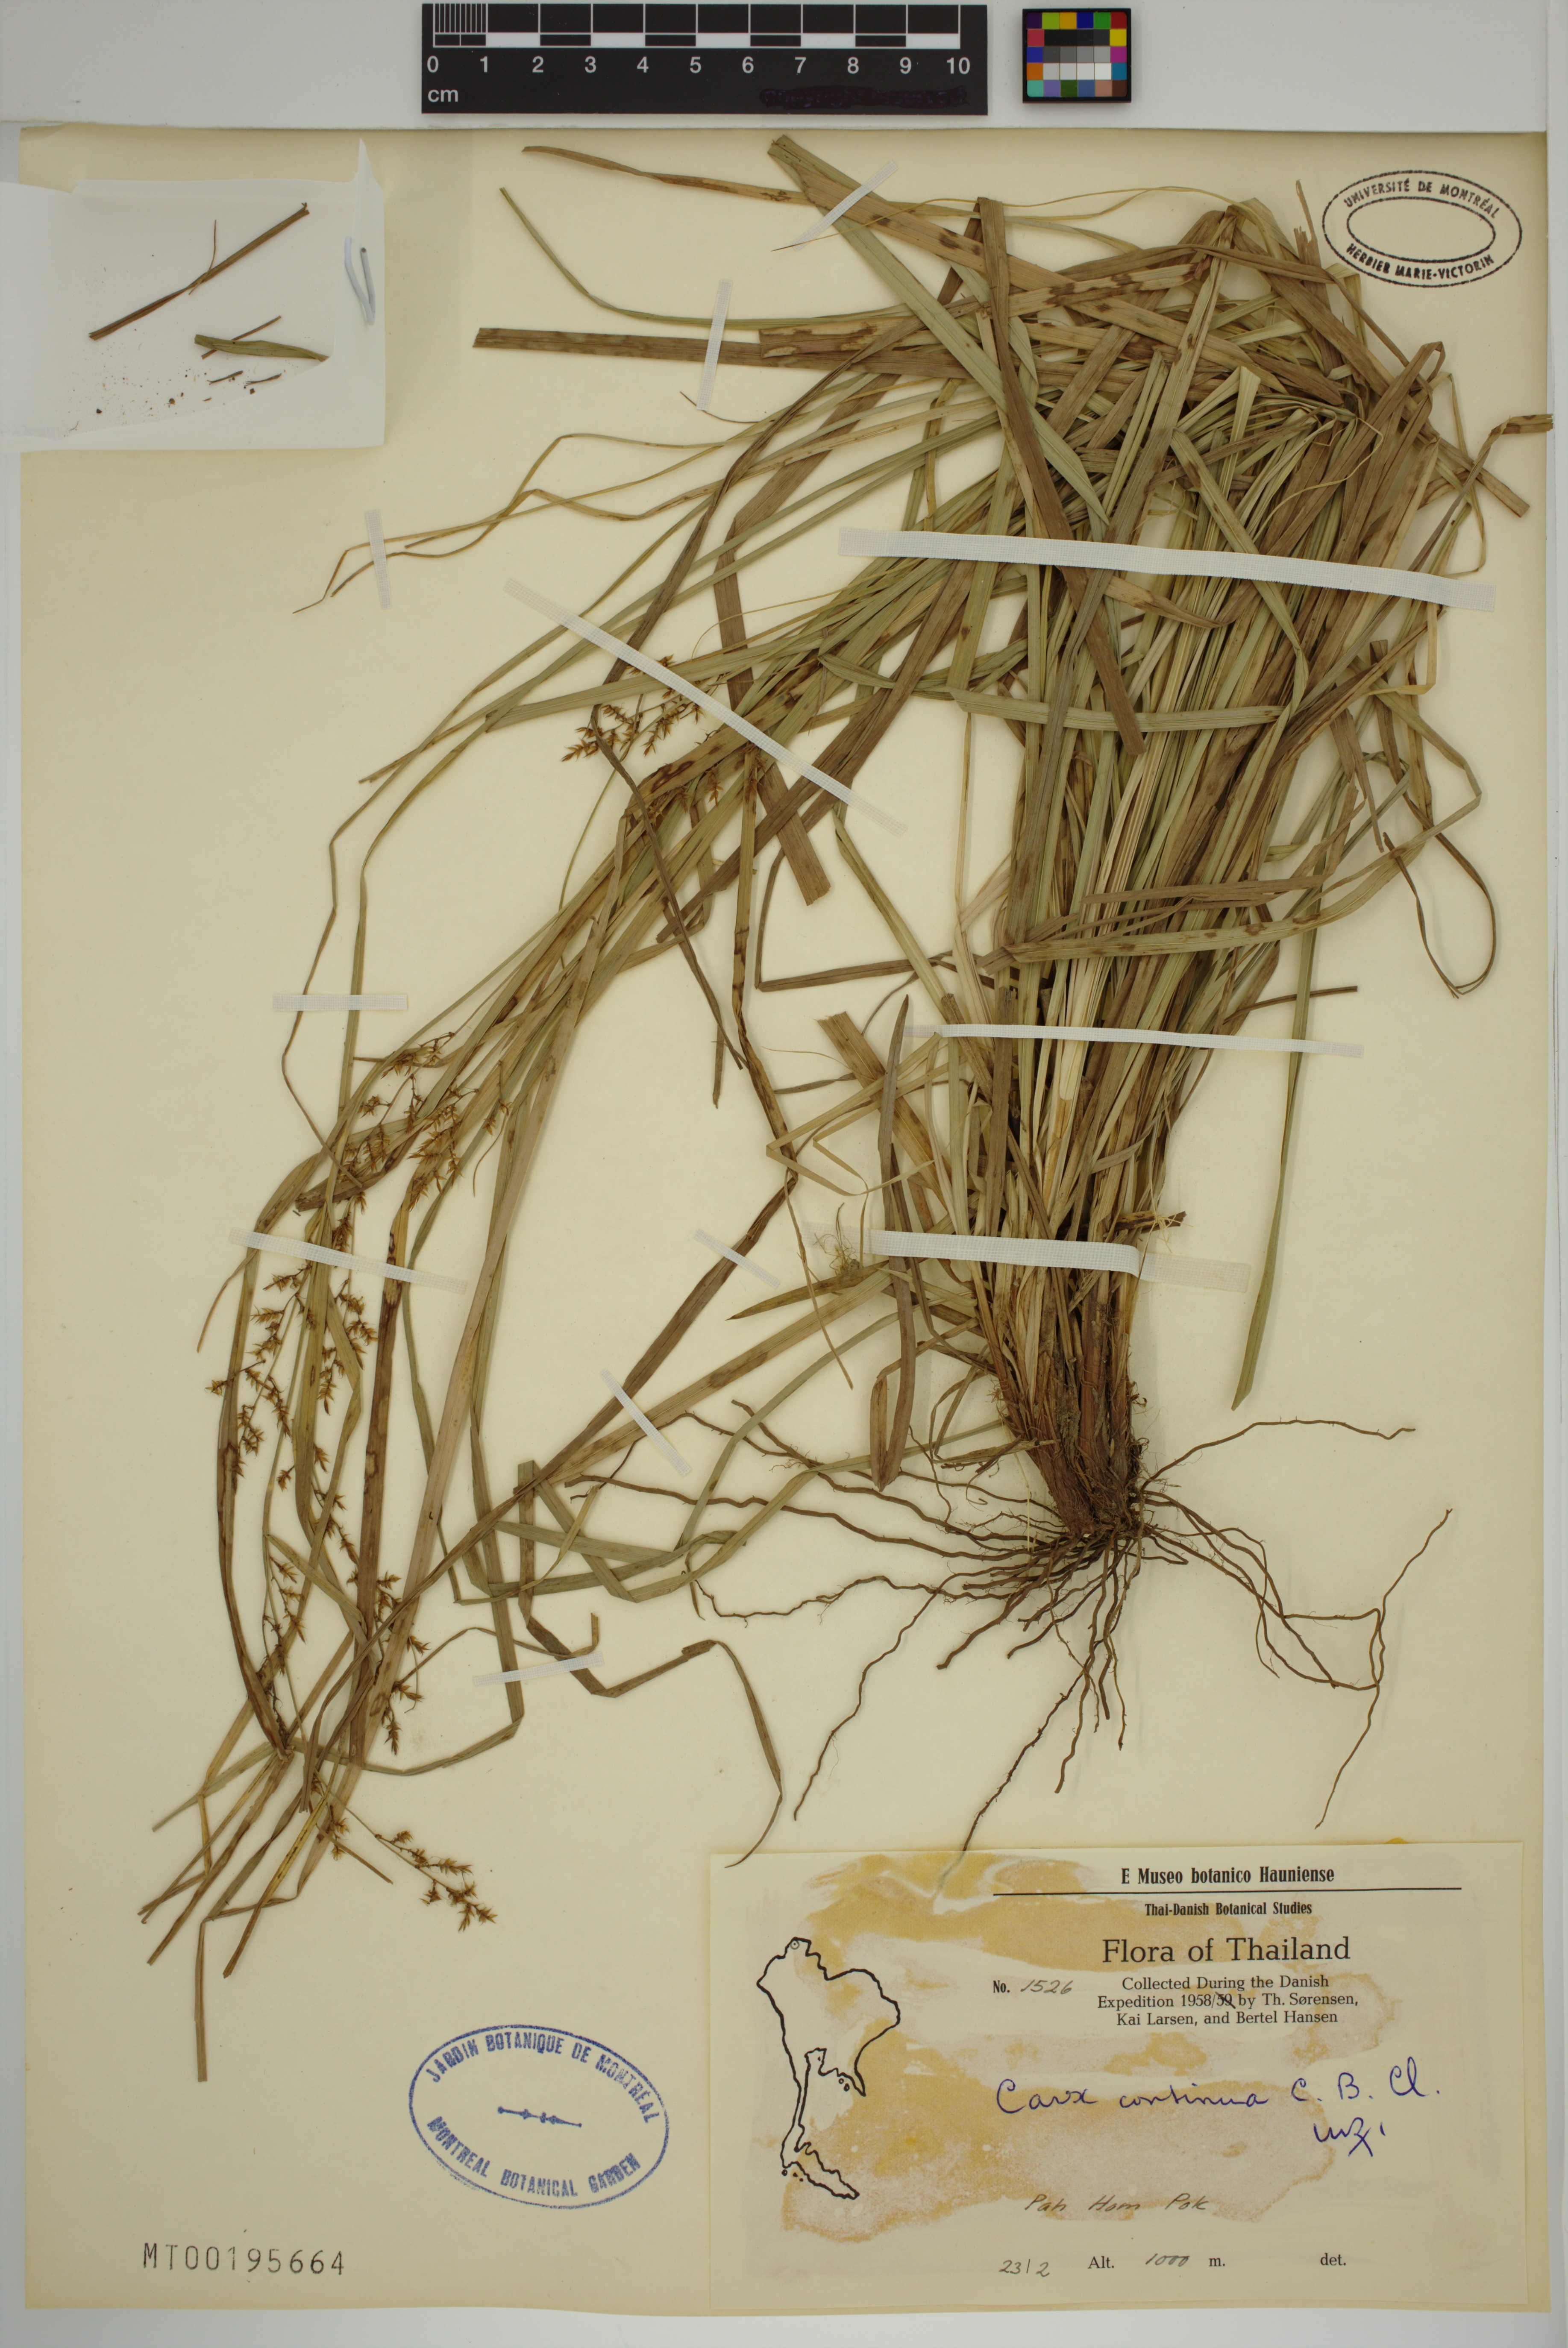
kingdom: Plantae
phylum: Tracheophyta
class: Liliopsida
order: Poales
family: Cyperaceae
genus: Carex
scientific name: Carex continua
